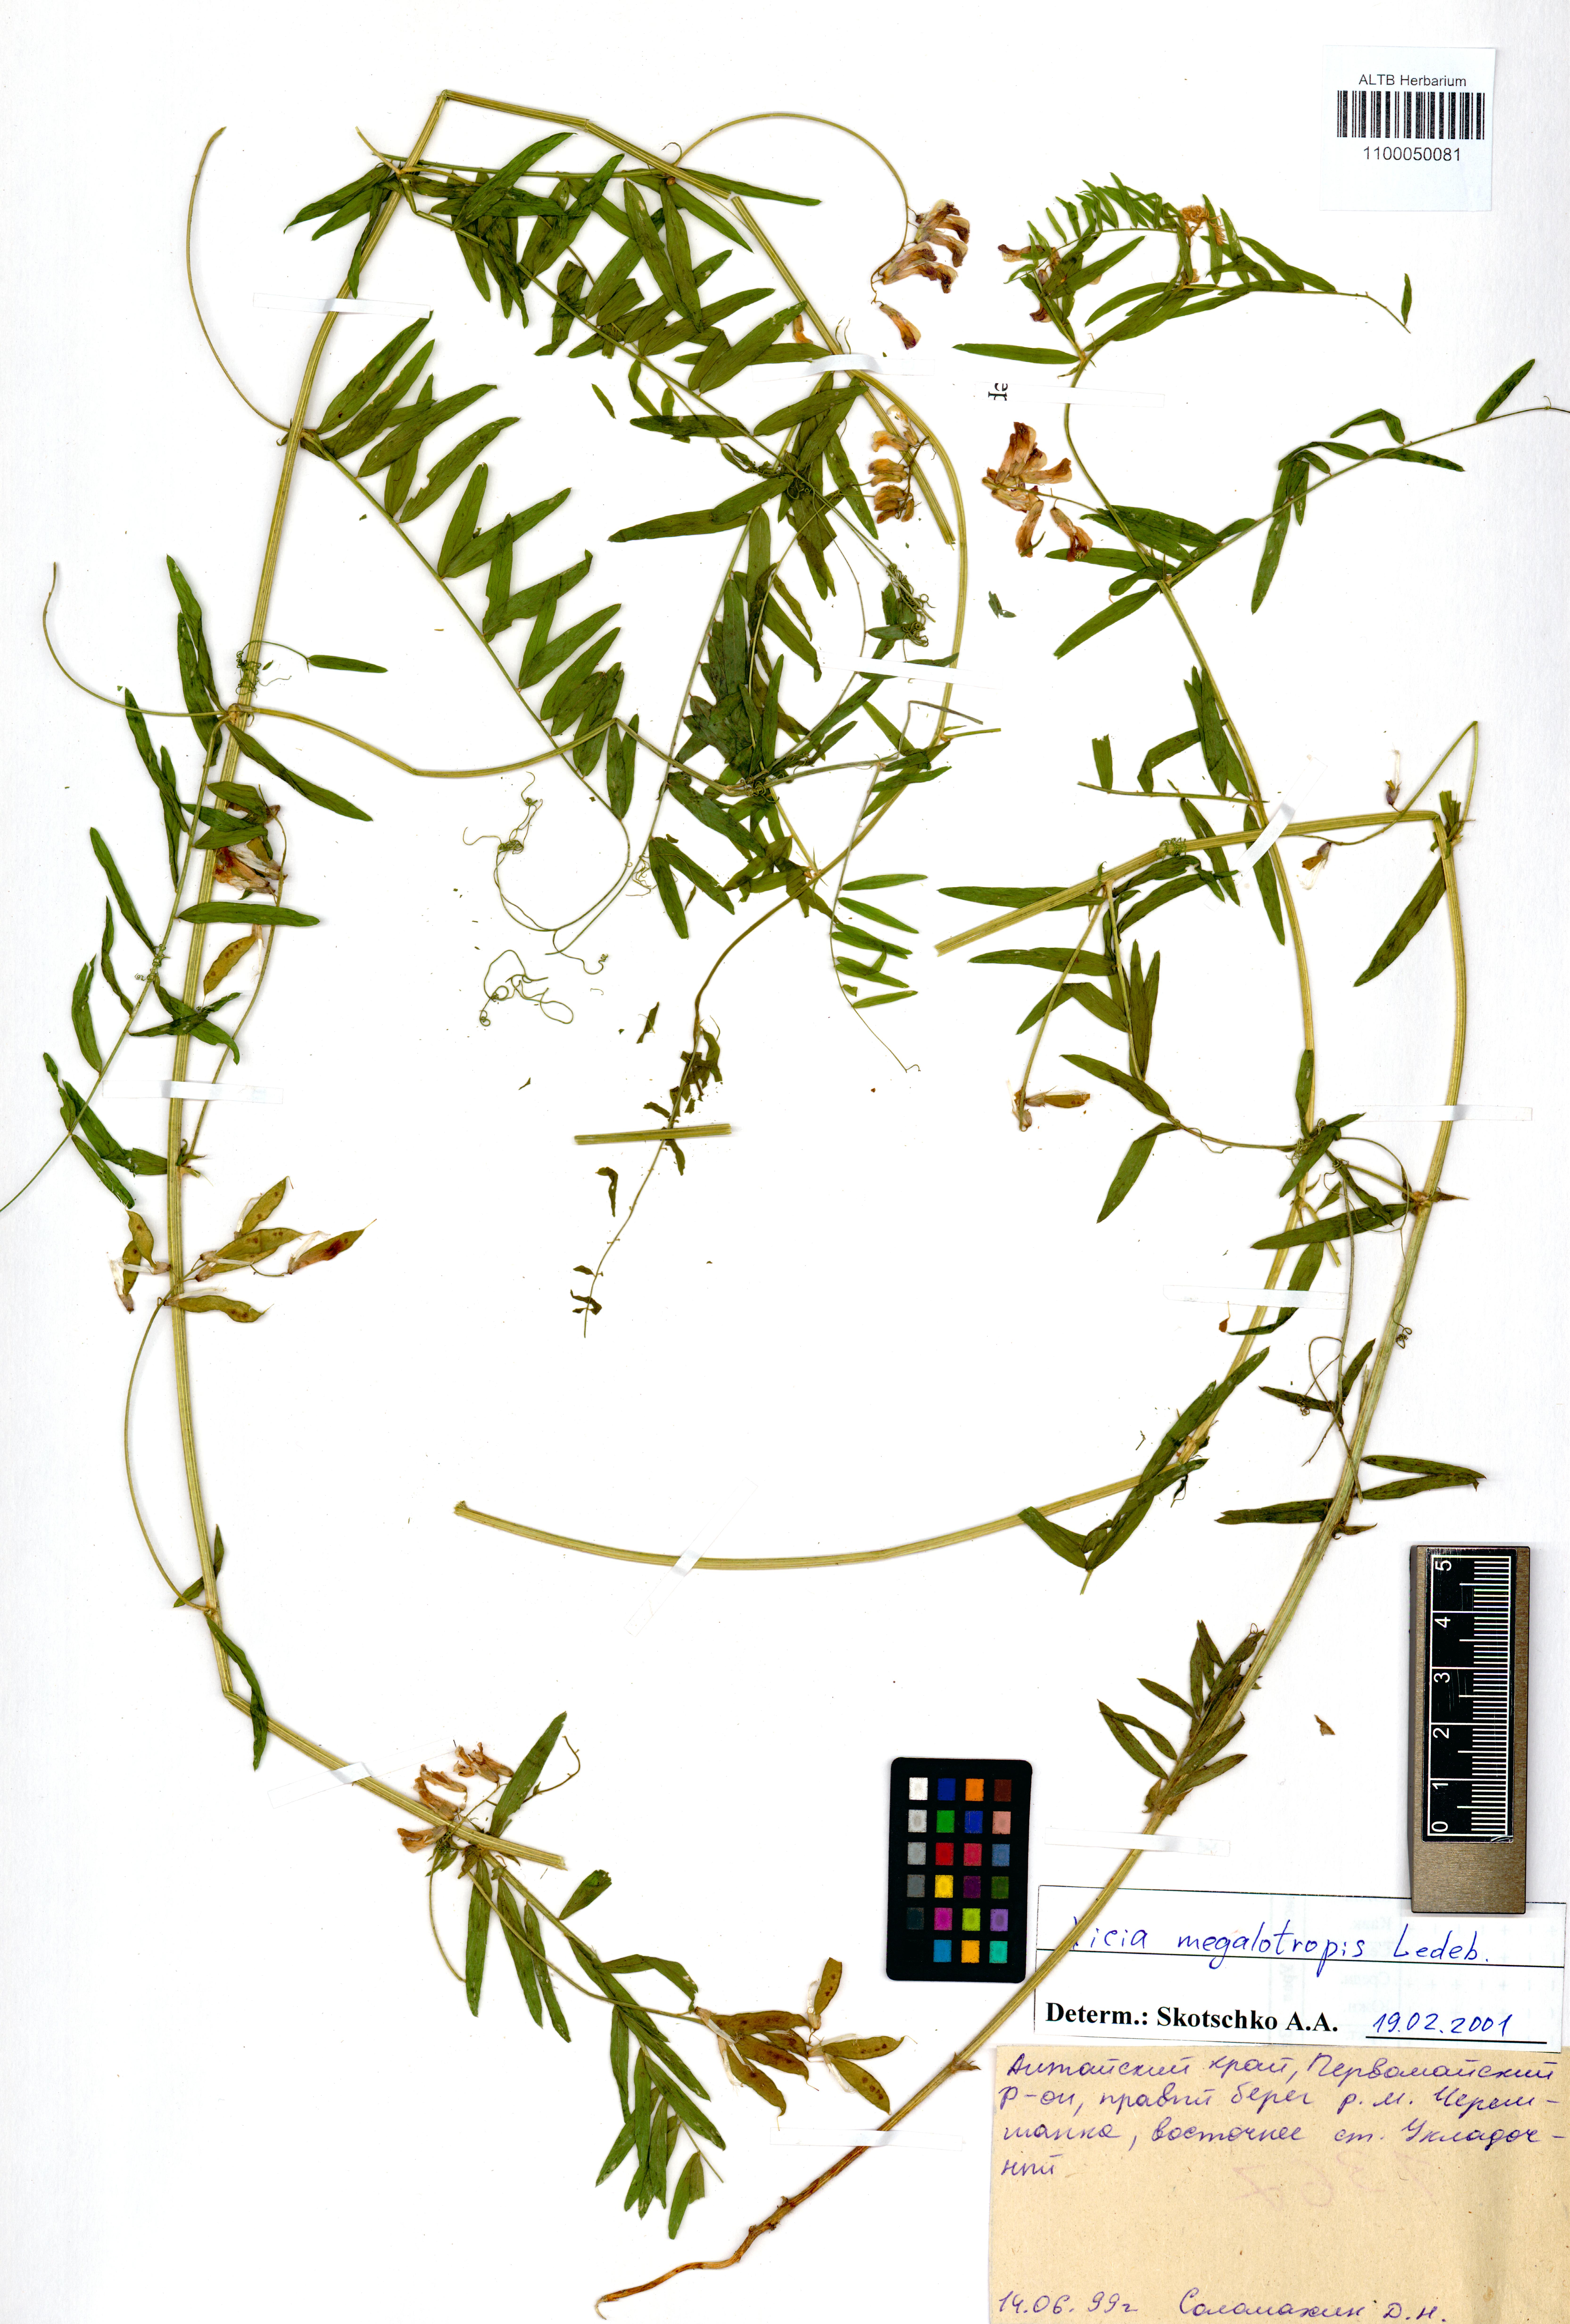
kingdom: Plantae
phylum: Tracheophyta
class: Magnoliopsida
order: Fabales
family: Fabaceae
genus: Vicia
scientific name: Vicia megalotropis
